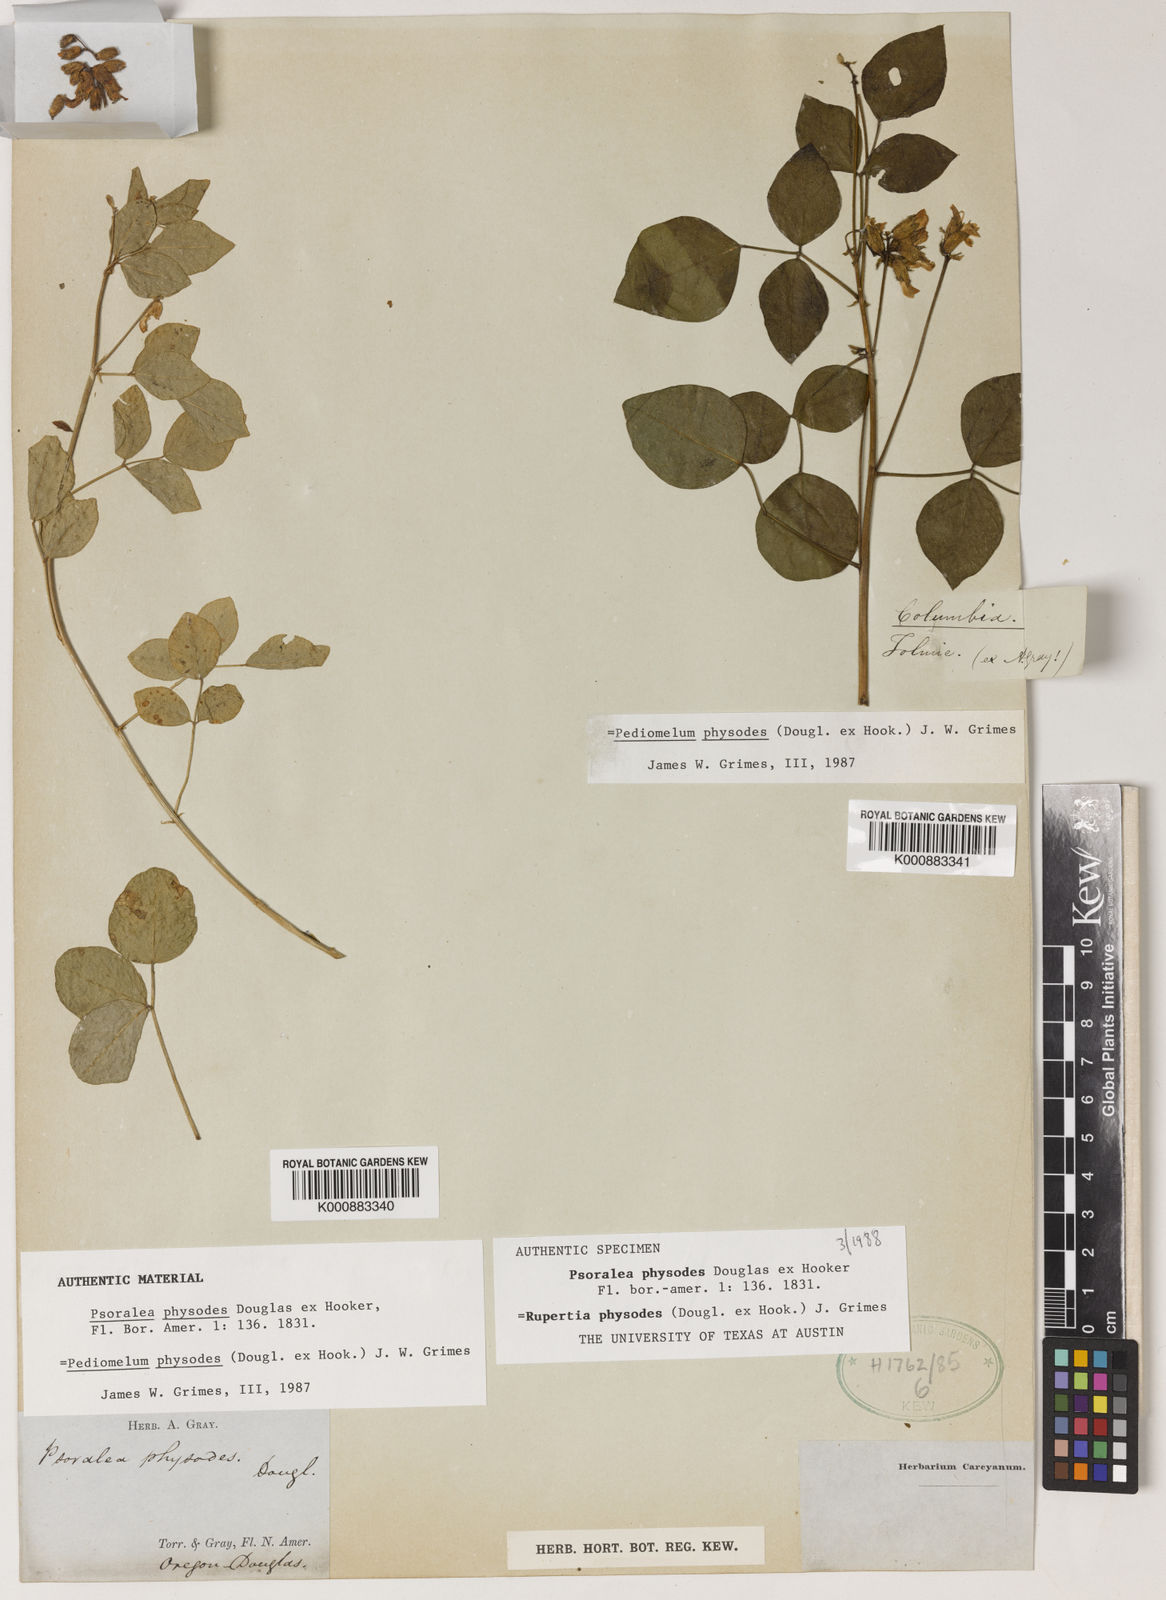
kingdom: Plantae
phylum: Tracheophyta
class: Magnoliopsida
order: Fabales
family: Fabaceae
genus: Rupertia
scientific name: Rupertia physodes
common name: California-tea
